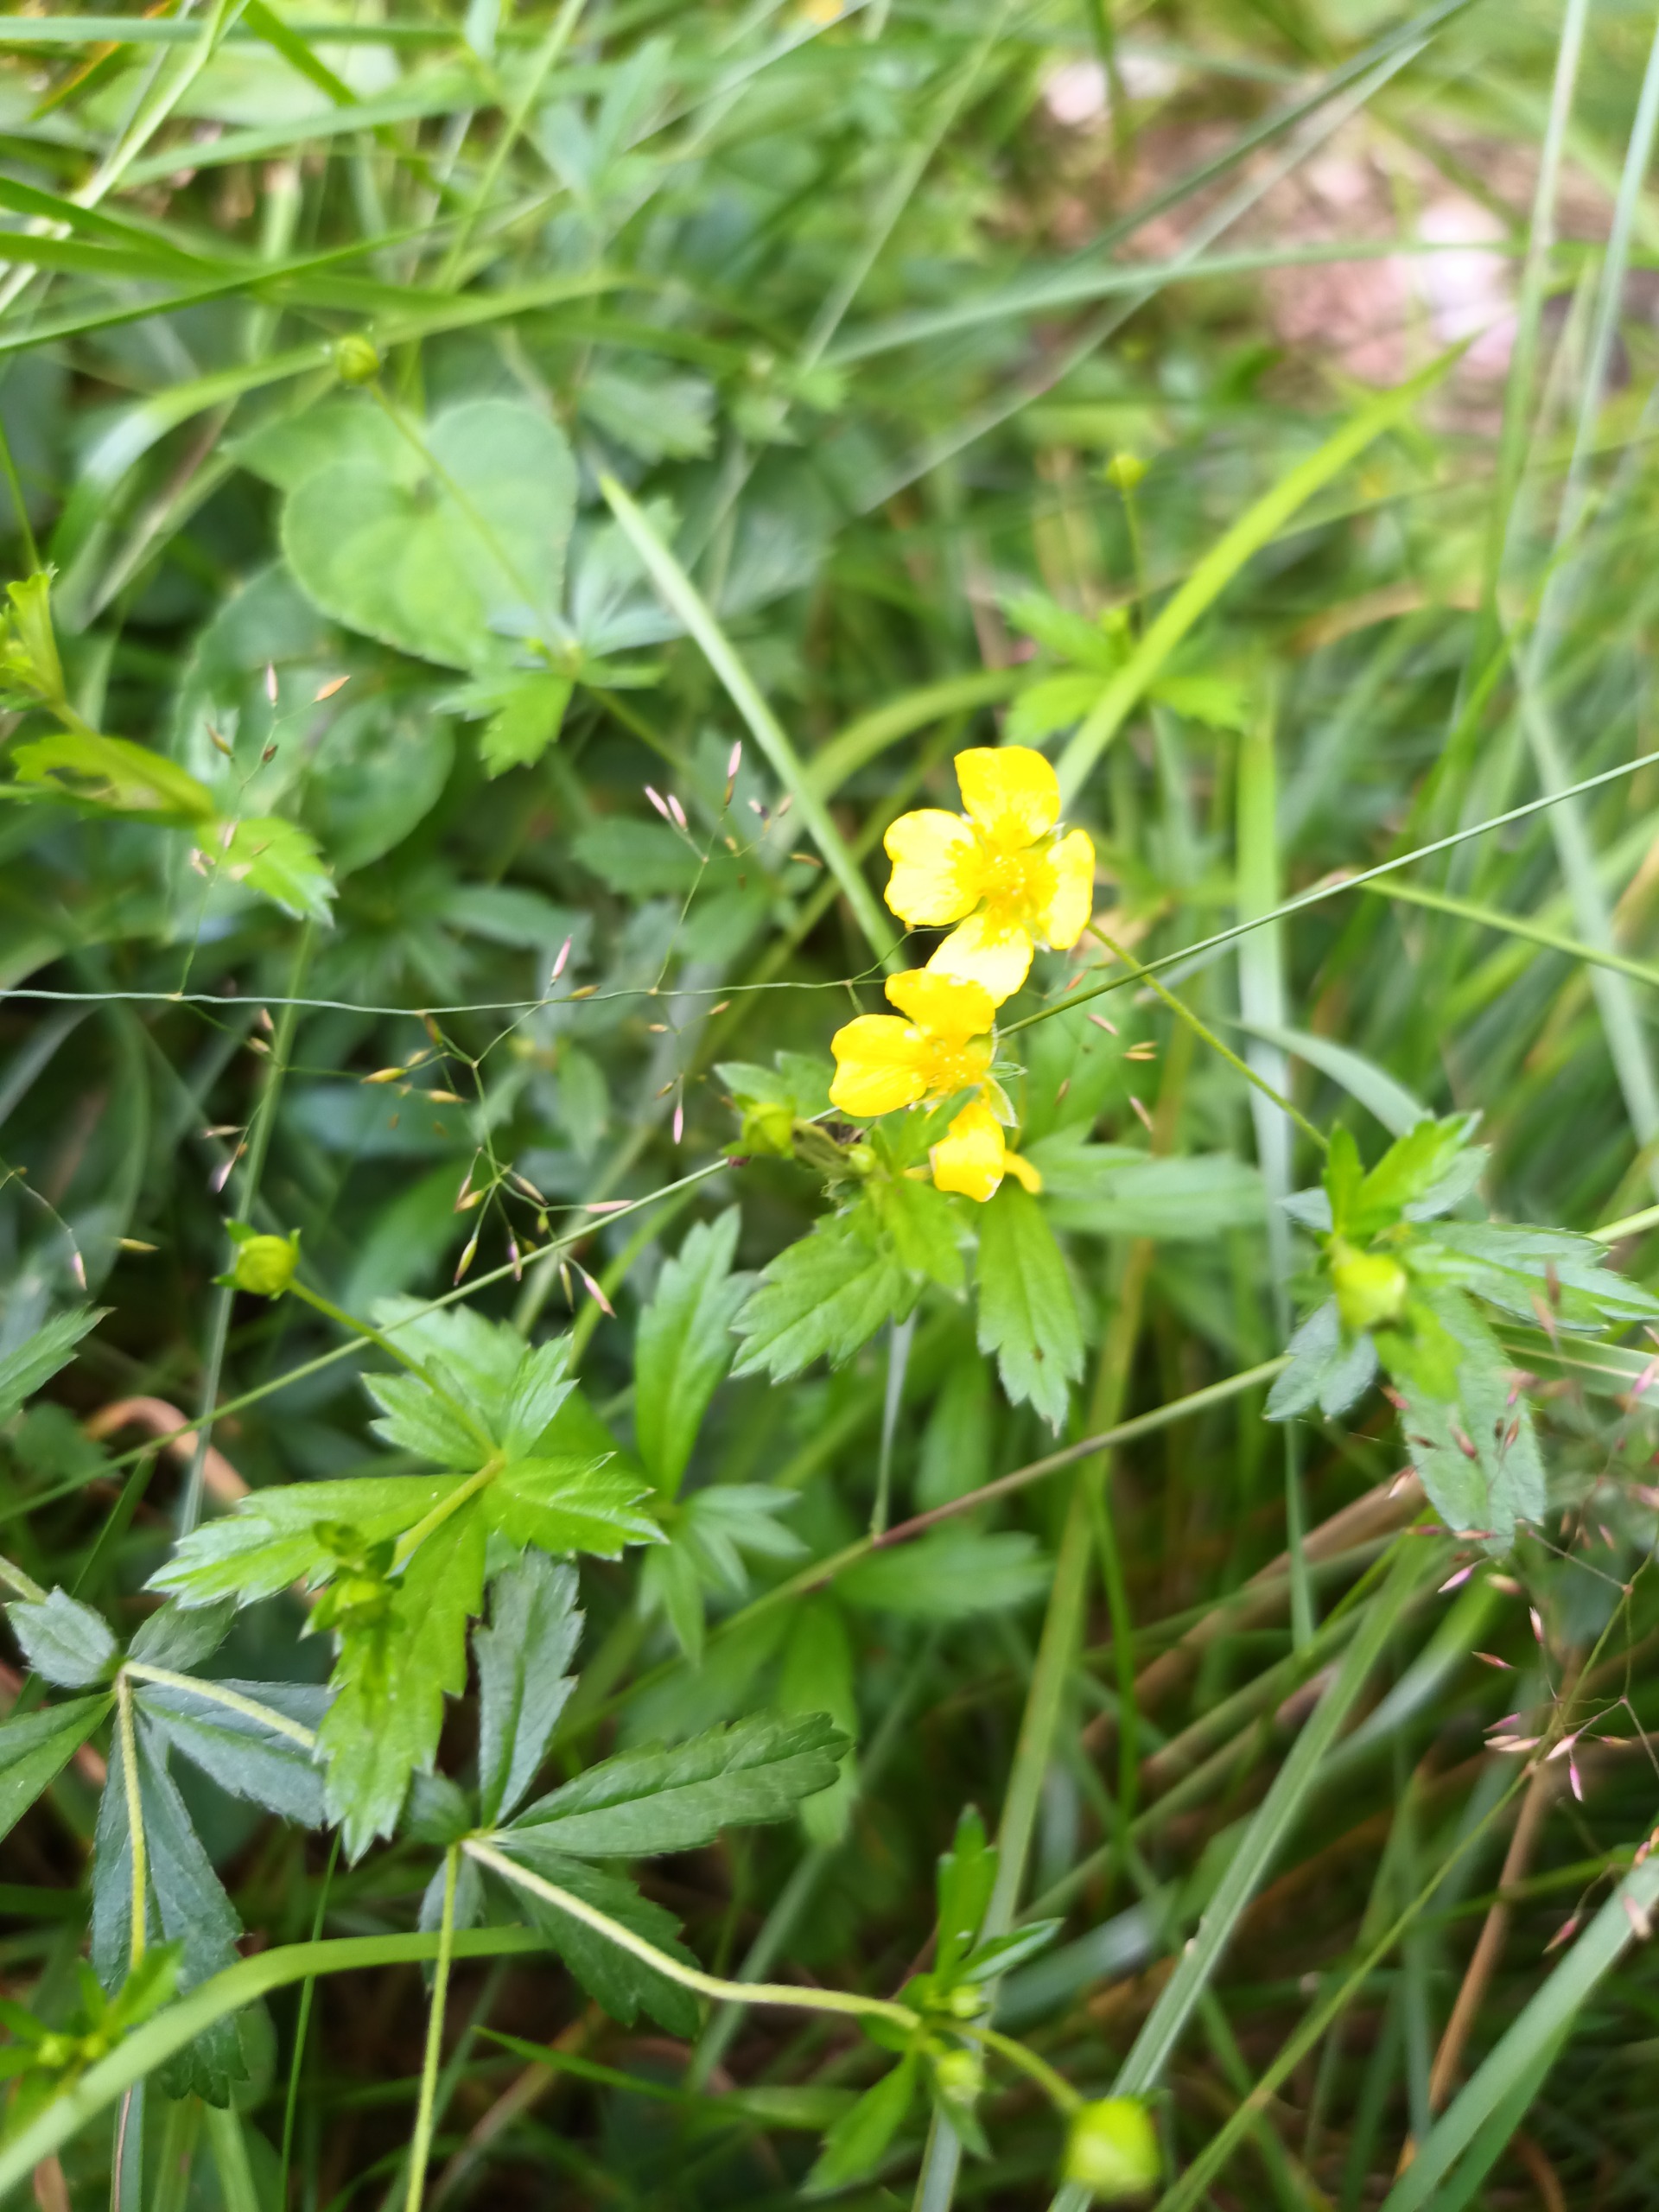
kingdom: Plantae
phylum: Tracheophyta
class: Magnoliopsida
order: Rosales
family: Rosaceae
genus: Potentilla
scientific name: Potentilla erecta
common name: Tormentil
